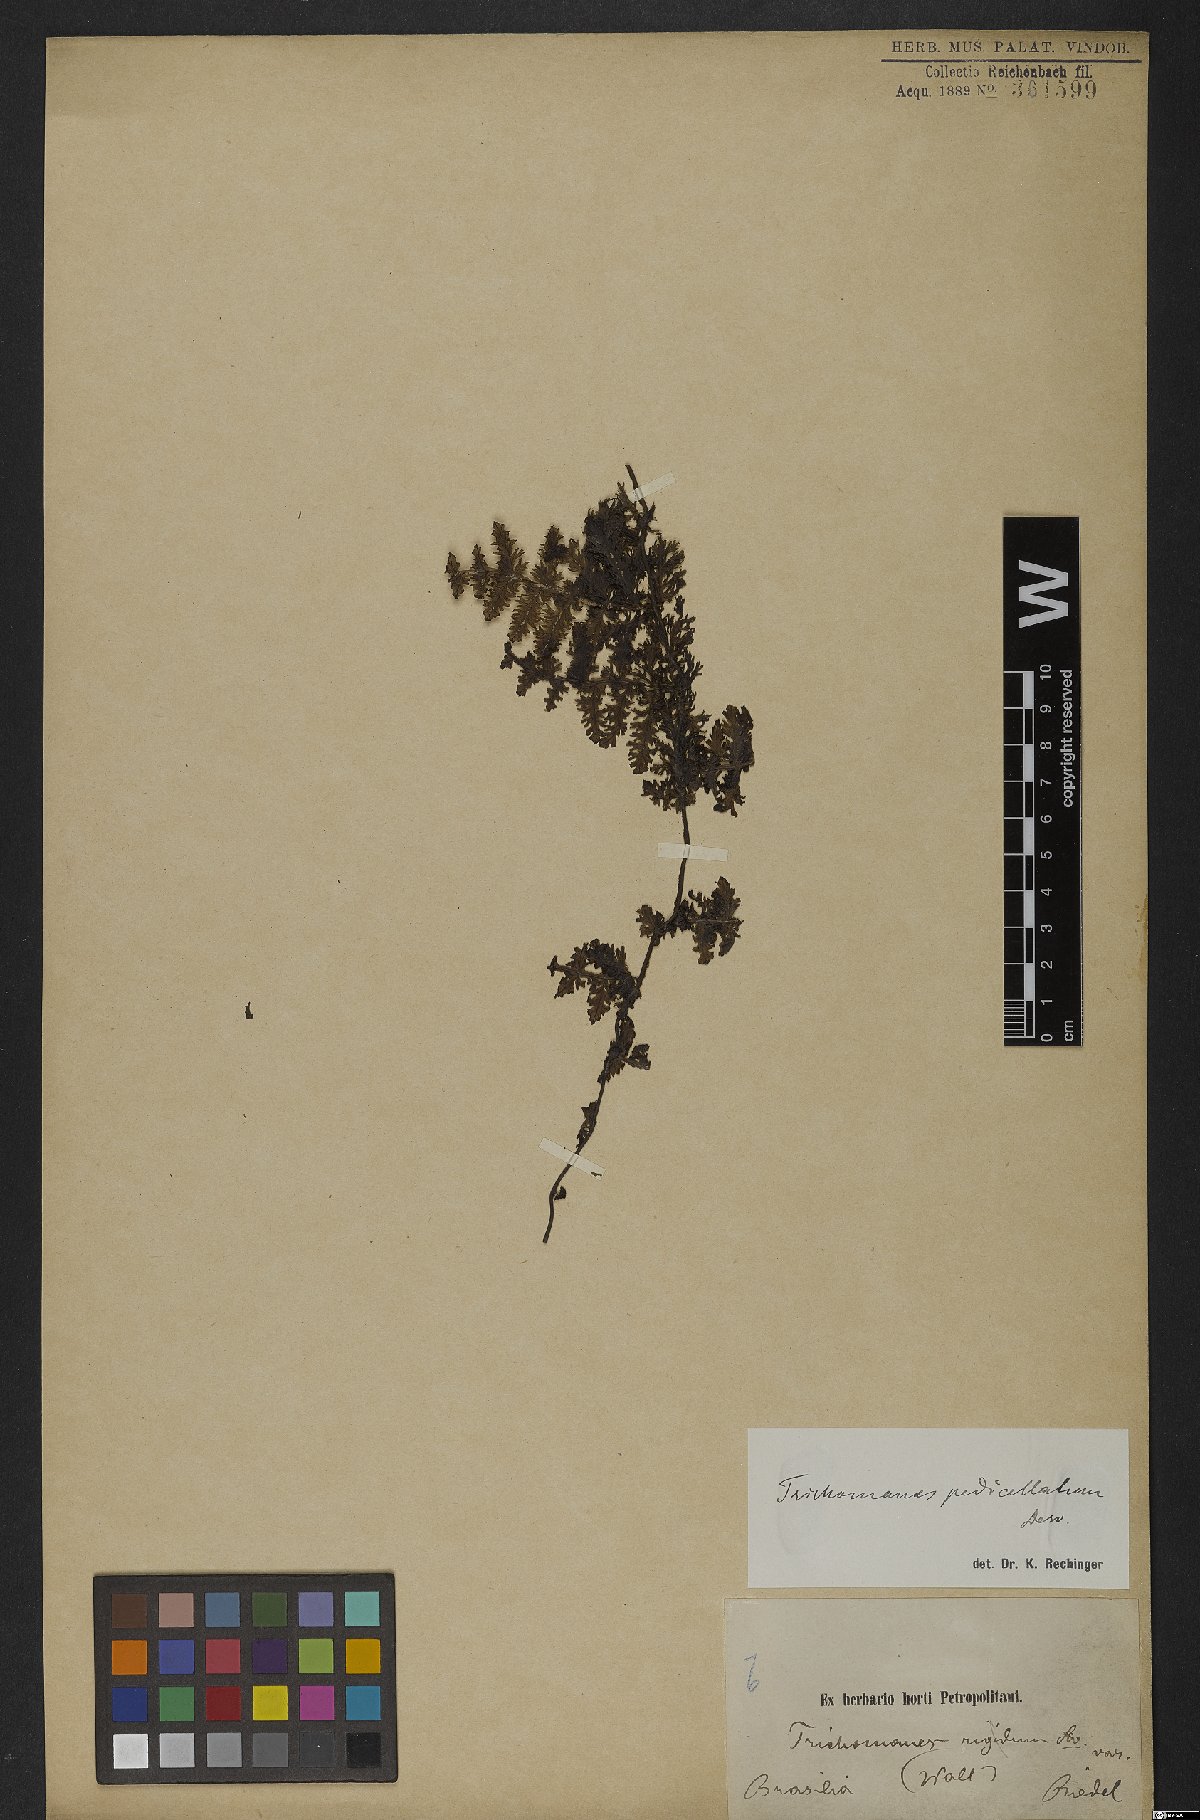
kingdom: Plantae
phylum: Tracheophyta
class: Polypodiopsida
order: Hymenophyllales
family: Hymenophyllaceae
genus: Trichomanes
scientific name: Trichomanes pedicellatum
